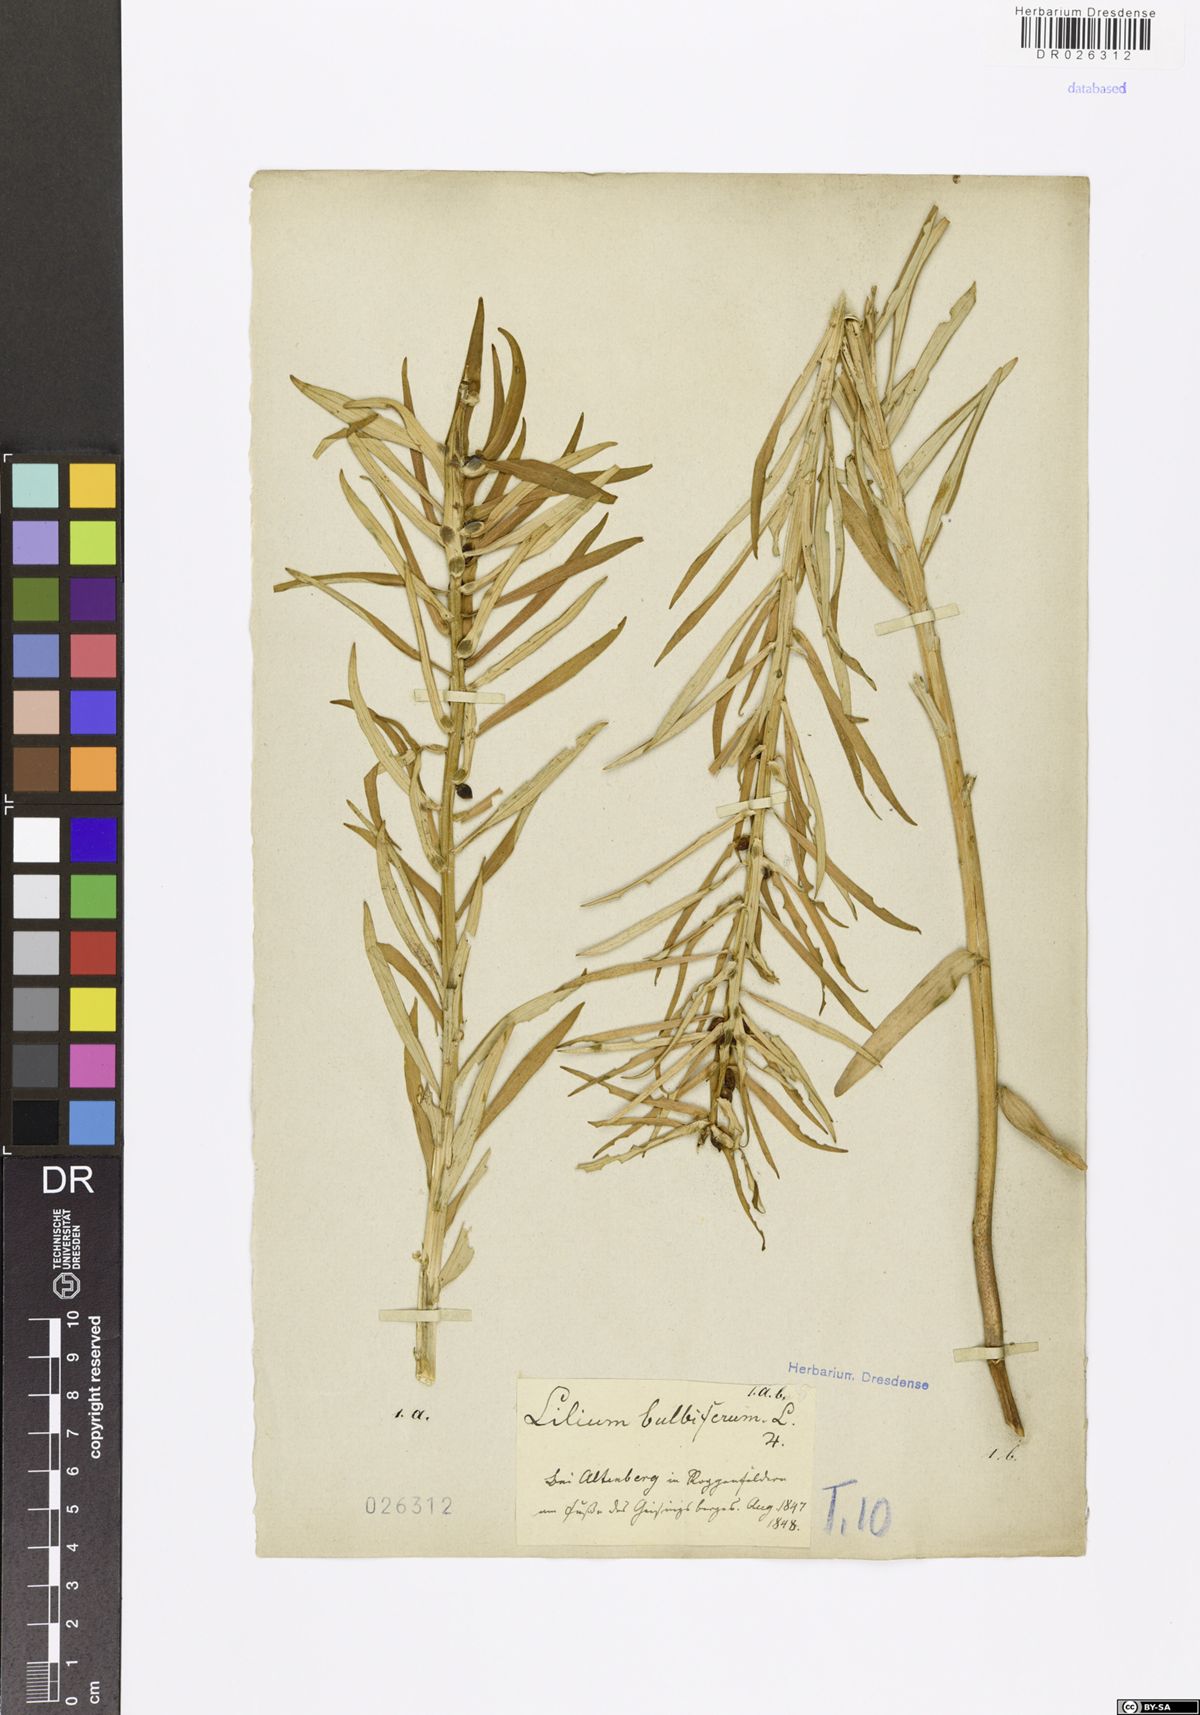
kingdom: Plantae
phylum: Tracheophyta
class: Liliopsida
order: Liliales
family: Liliaceae
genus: Lilium
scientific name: Lilium bulbiferum
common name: Orange lily
